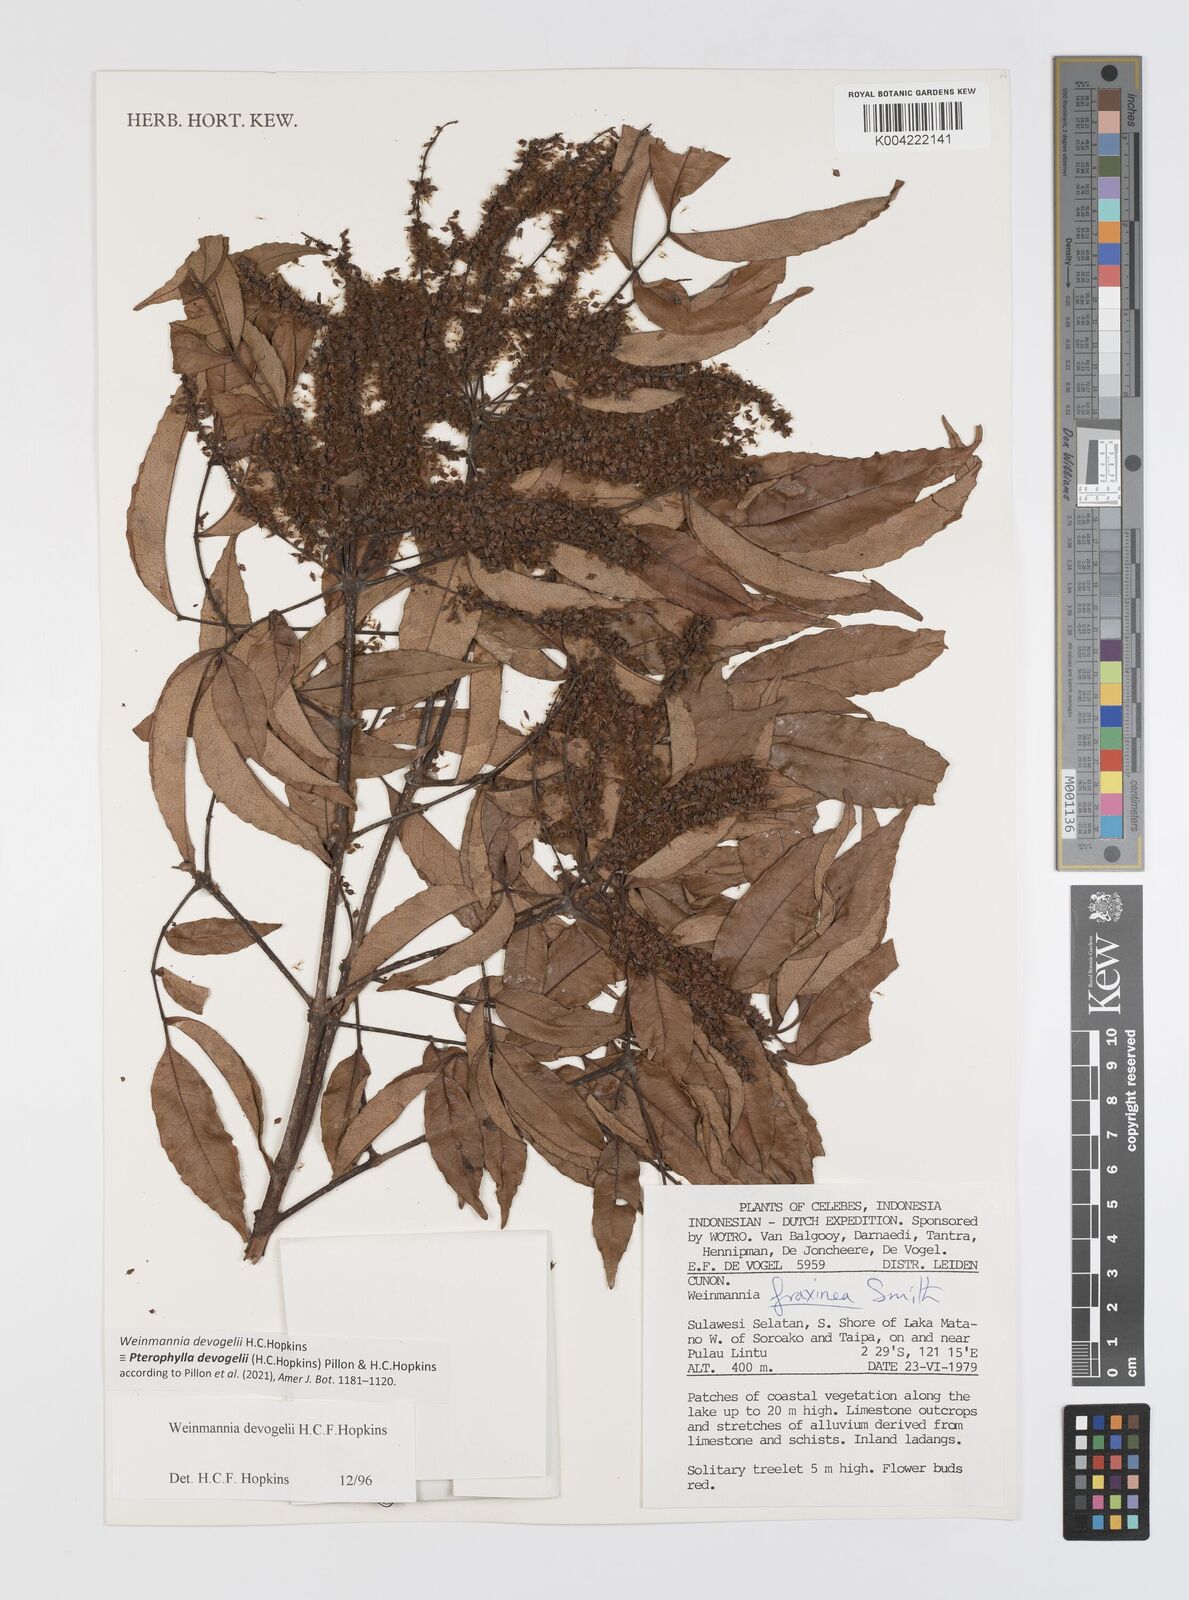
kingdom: Plantae
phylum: Tracheophyta
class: Magnoliopsida
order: Oxalidales
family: Cunoniaceae
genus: Pterophylla
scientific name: Pterophylla devogelii
